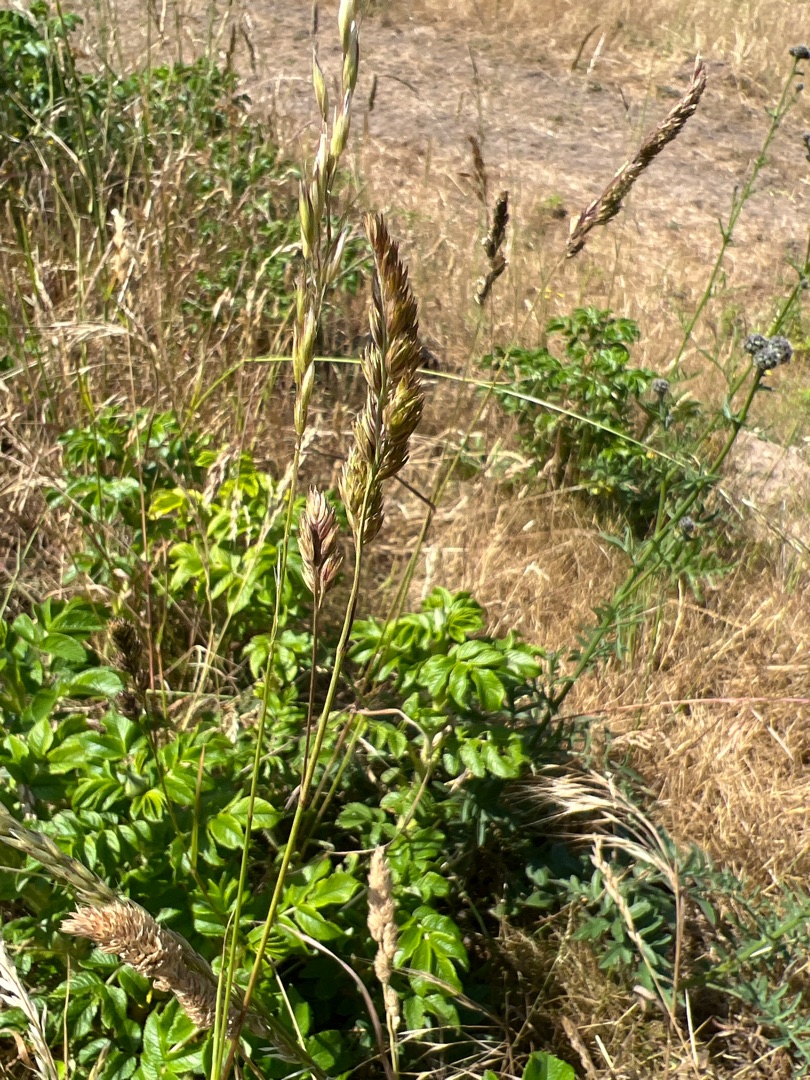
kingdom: Plantae
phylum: Tracheophyta
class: Liliopsida
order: Poales
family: Poaceae
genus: Dactylis
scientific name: Dactylis glomerata
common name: Almindelig hundegræs
